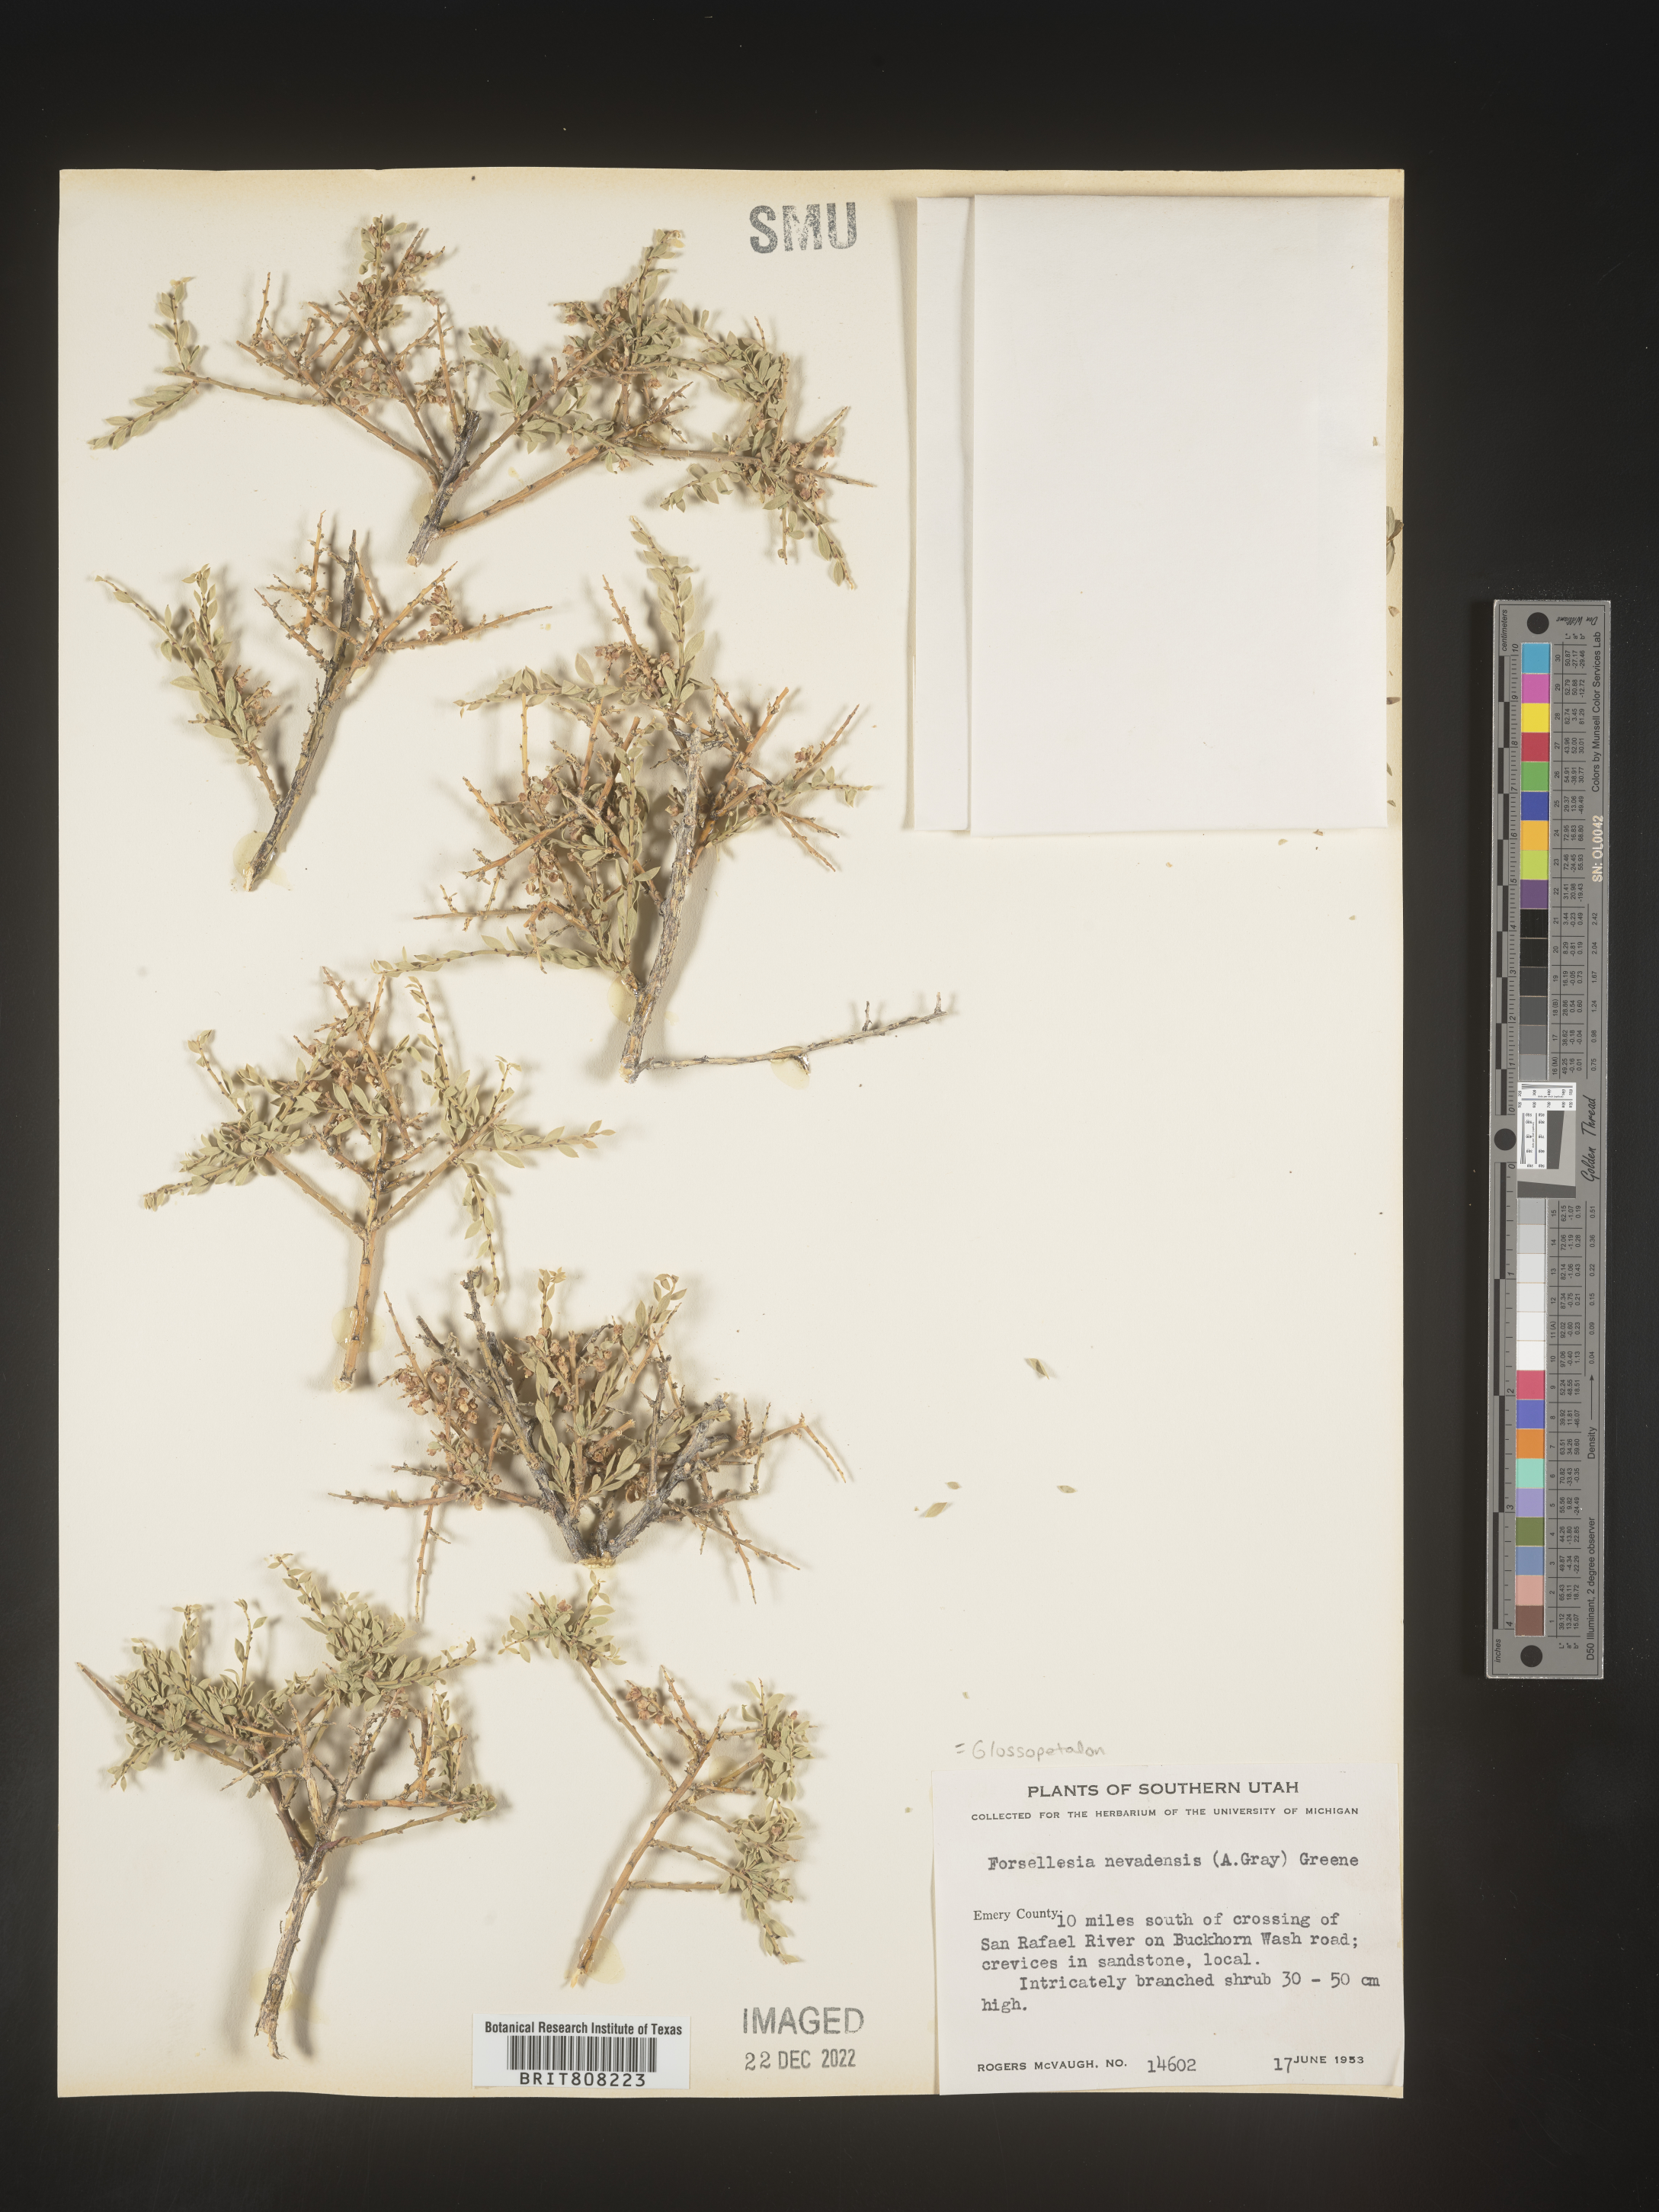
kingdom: Plantae
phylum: Tracheophyta
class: Magnoliopsida
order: Crossosomatales
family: Crossosomataceae
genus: Glossopetalon
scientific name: Glossopetalon
